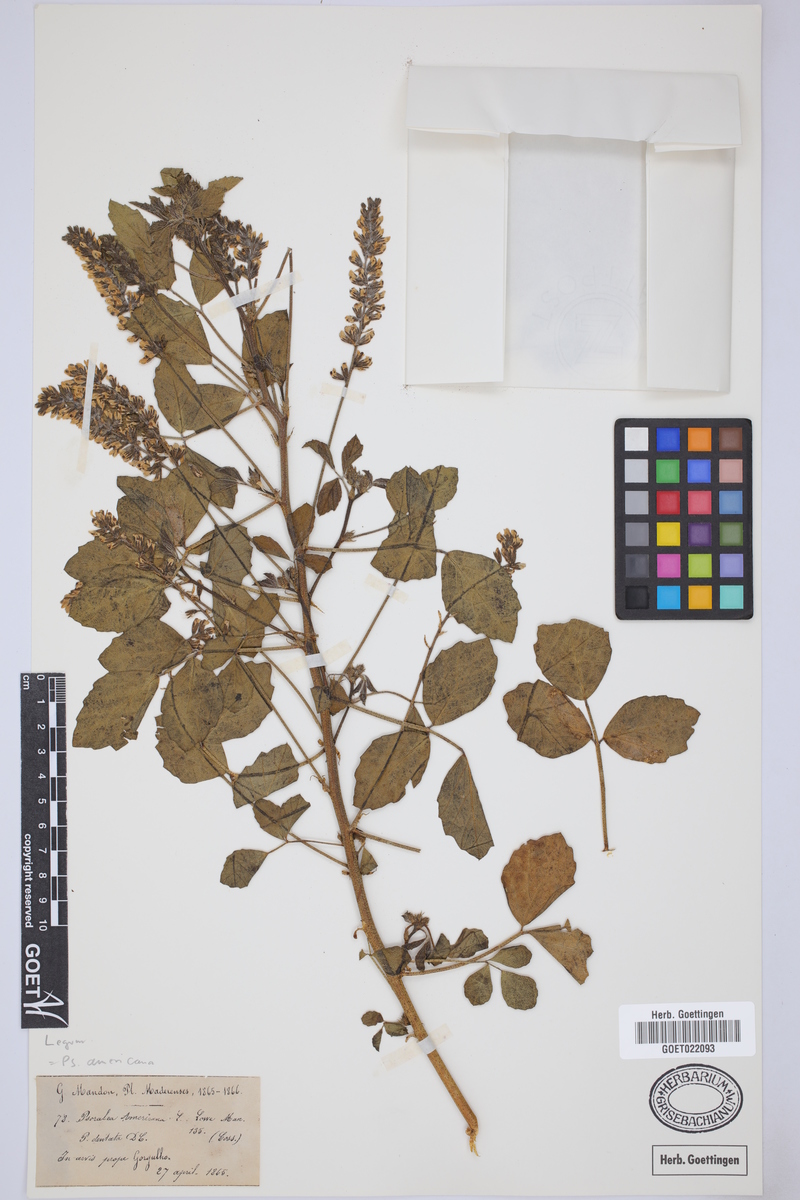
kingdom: Plantae
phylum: Tracheophyta
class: Magnoliopsida
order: Fabales
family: Fabaceae
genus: Cullen
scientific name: Cullen americanum
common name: Scurfy pea
